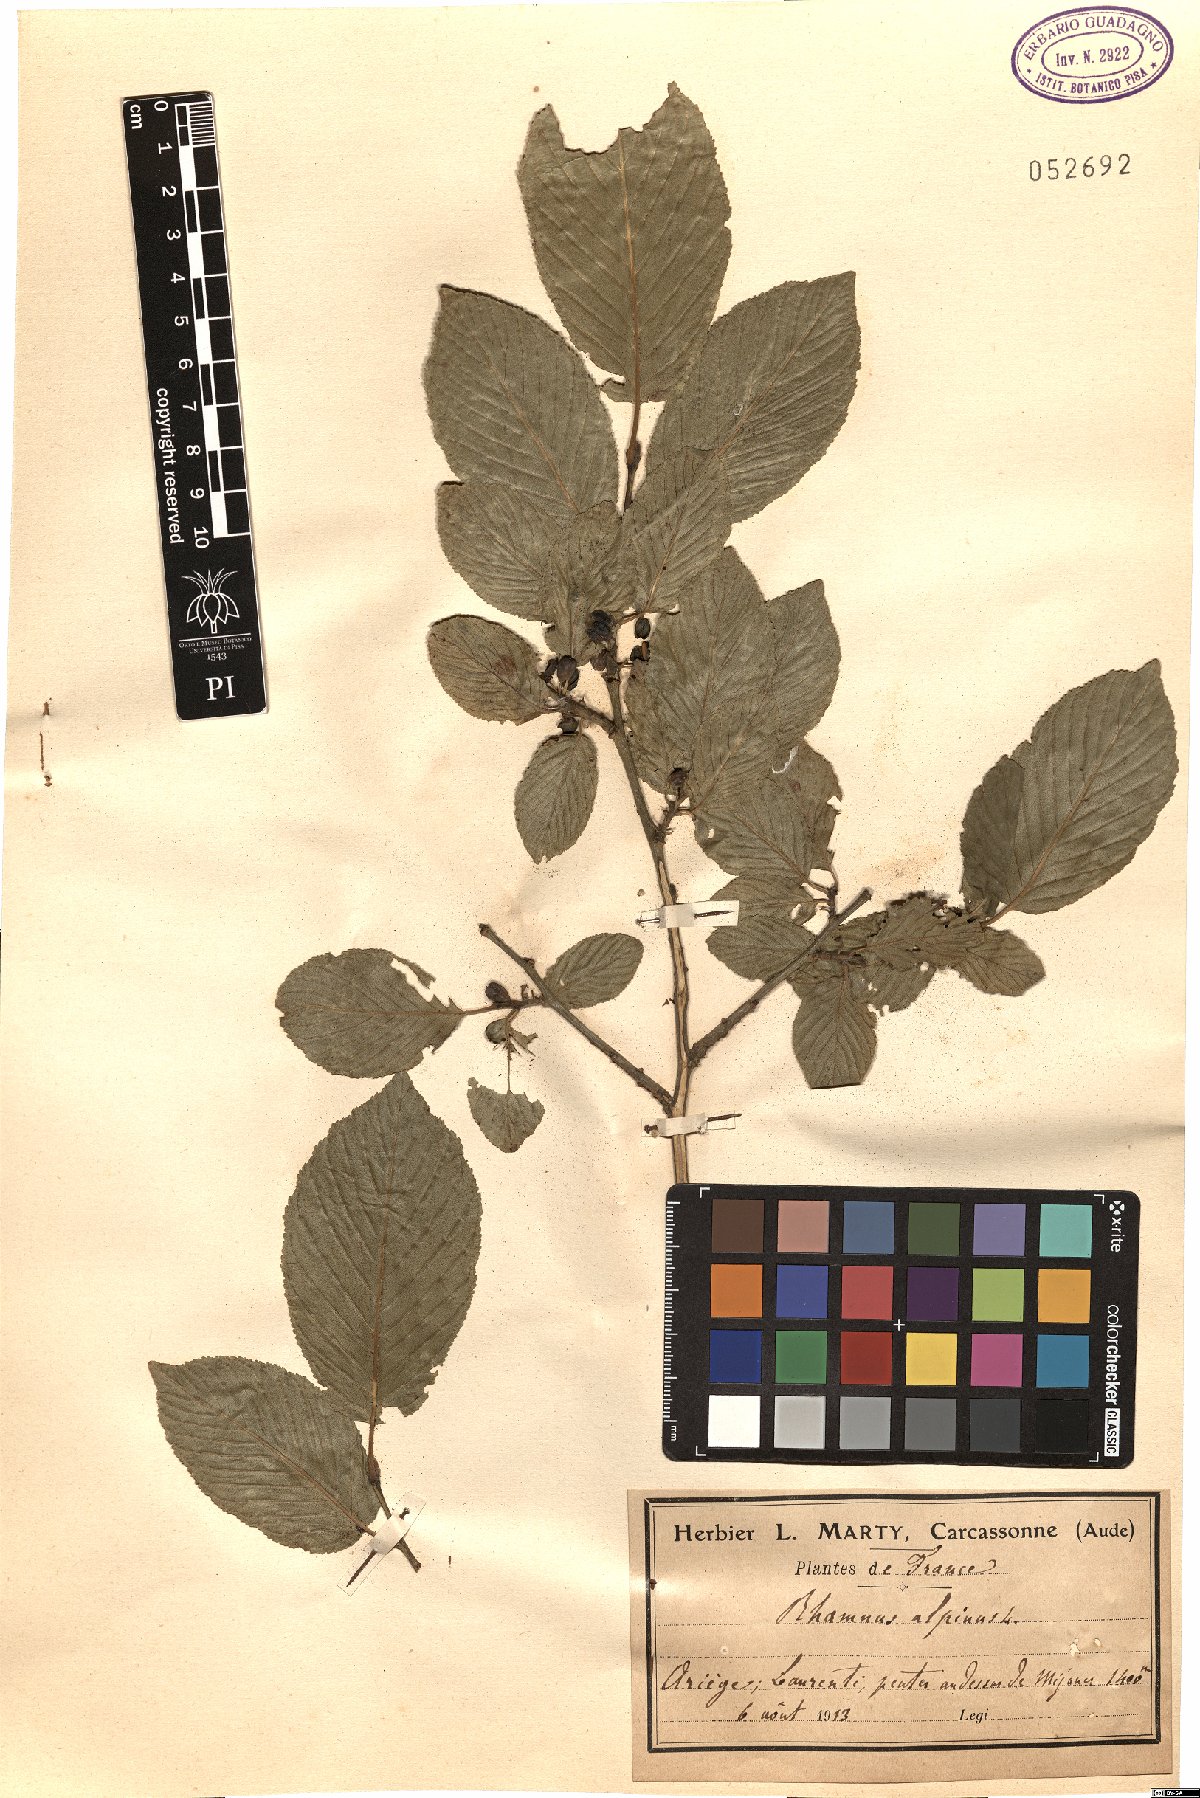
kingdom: Plantae
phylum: Tracheophyta
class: Magnoliopsida
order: Rosales
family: Rhamnaceae
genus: Atadinus
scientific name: Atadinus alpinus
